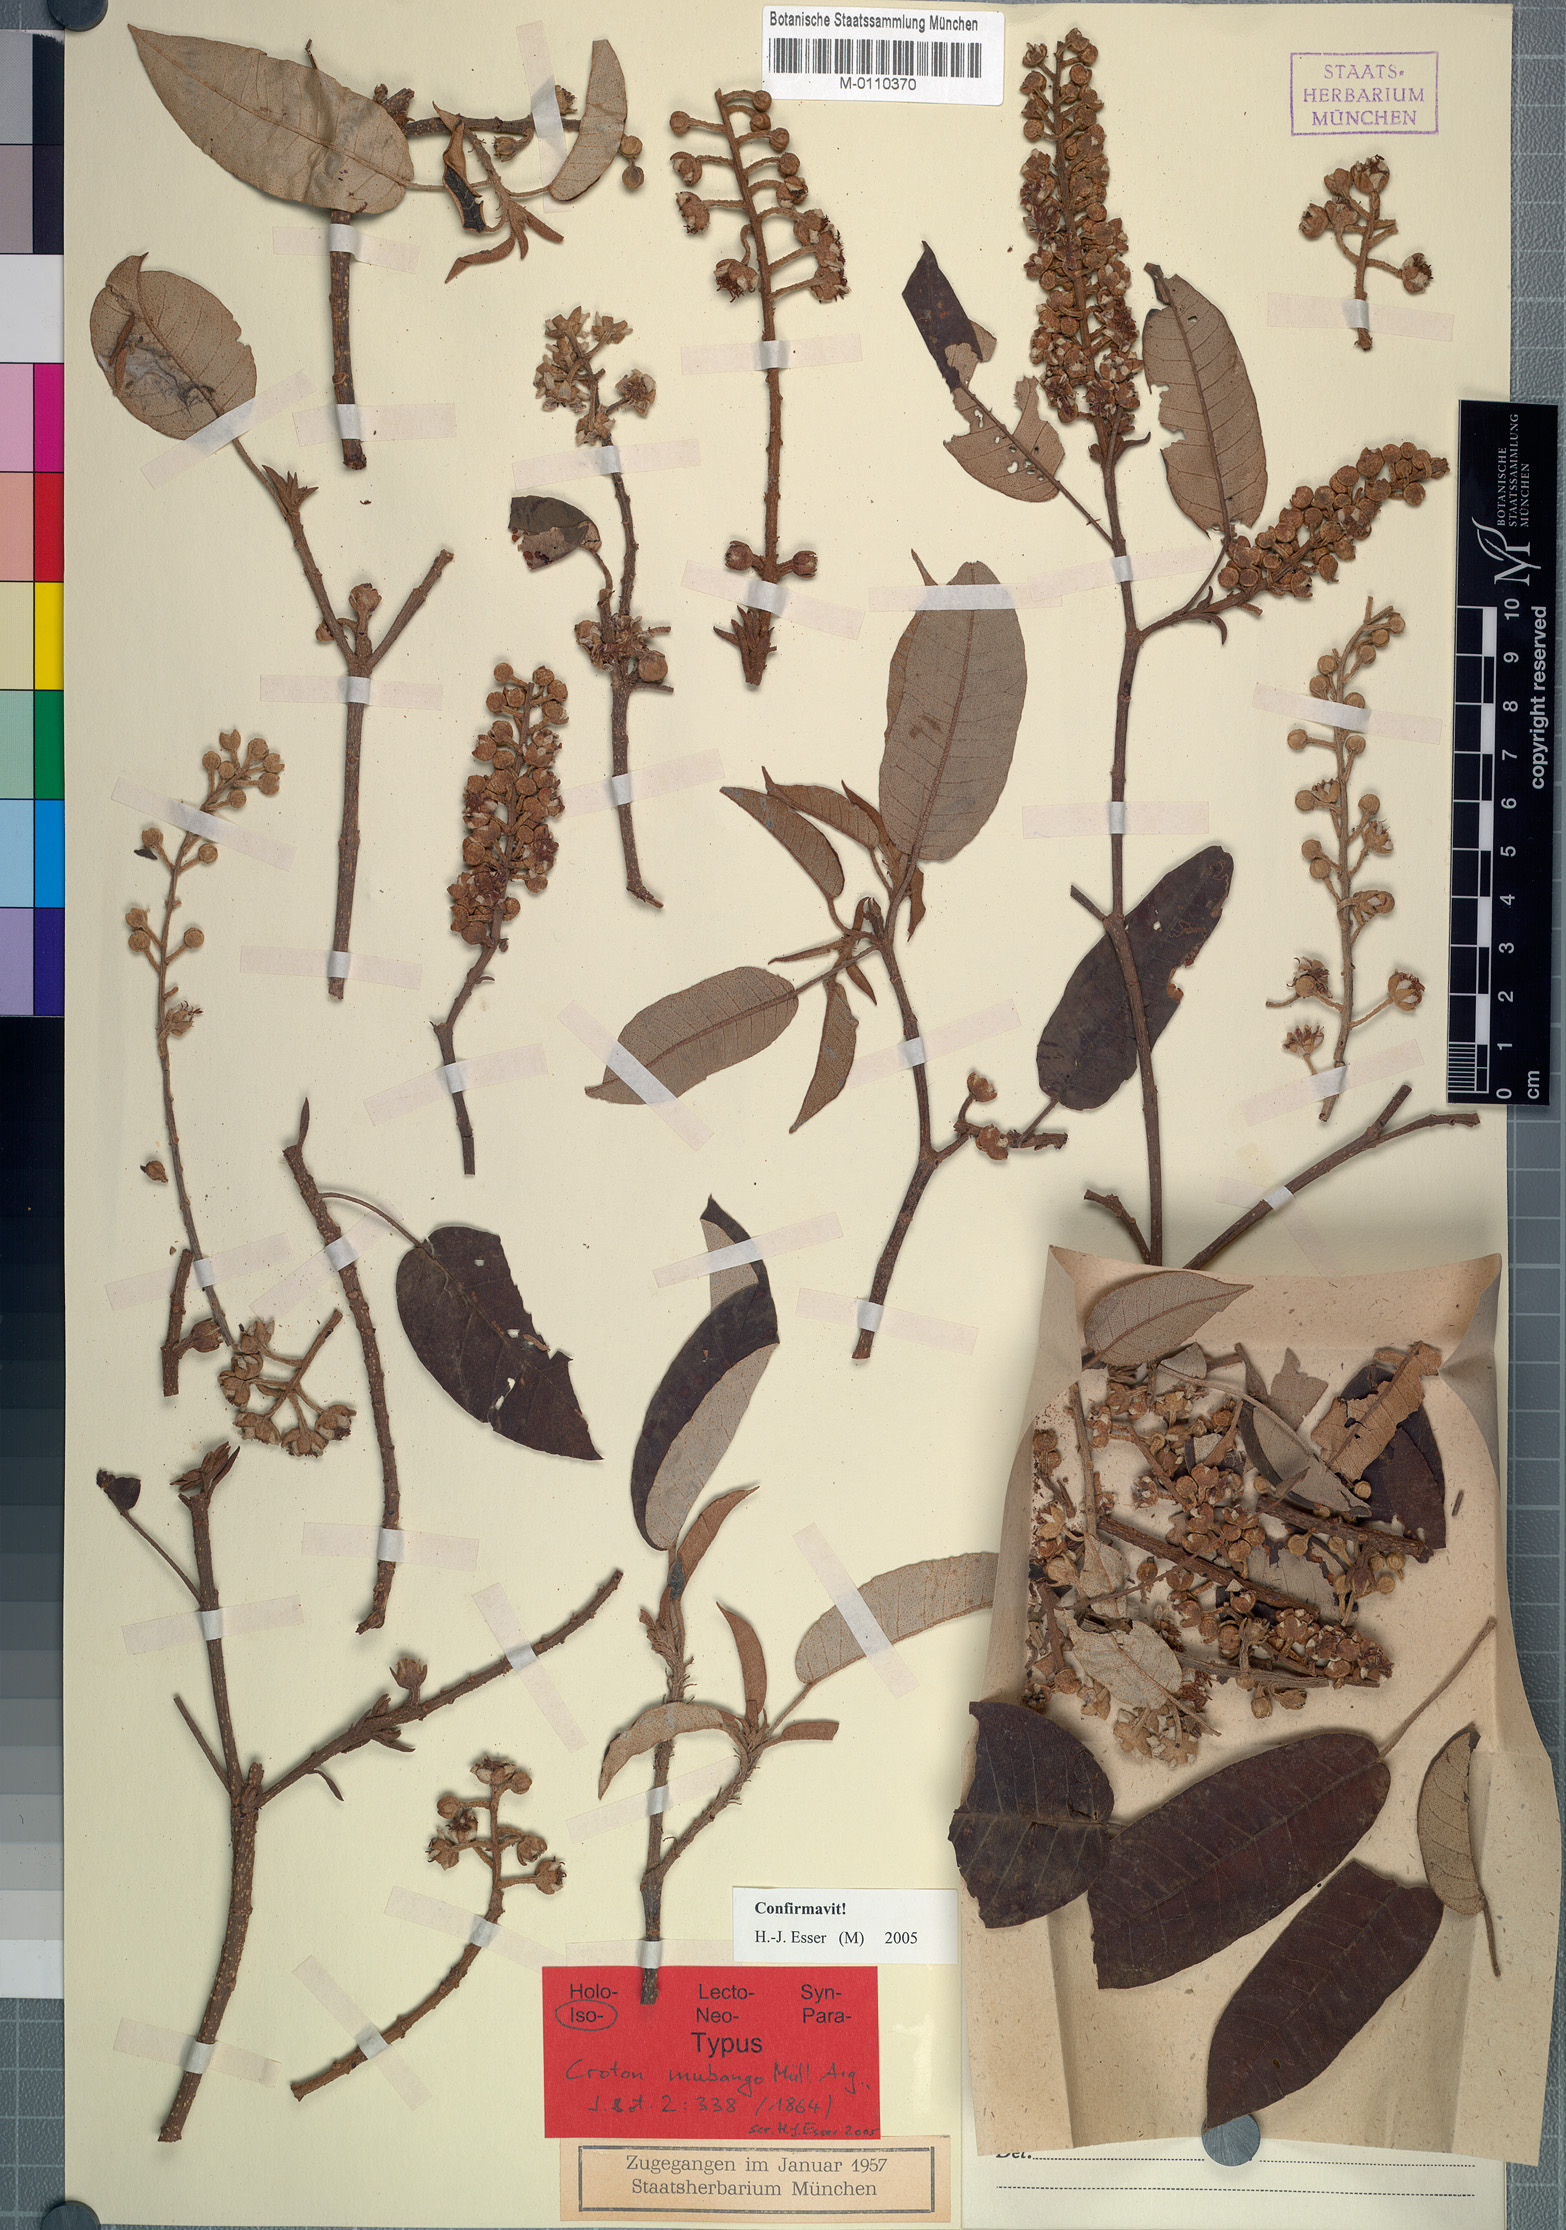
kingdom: Plantae
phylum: Tracheophyta
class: Magnoliopsida
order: Malpighiales
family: Euphorbiaceae
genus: Croton
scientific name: Croton mubango
